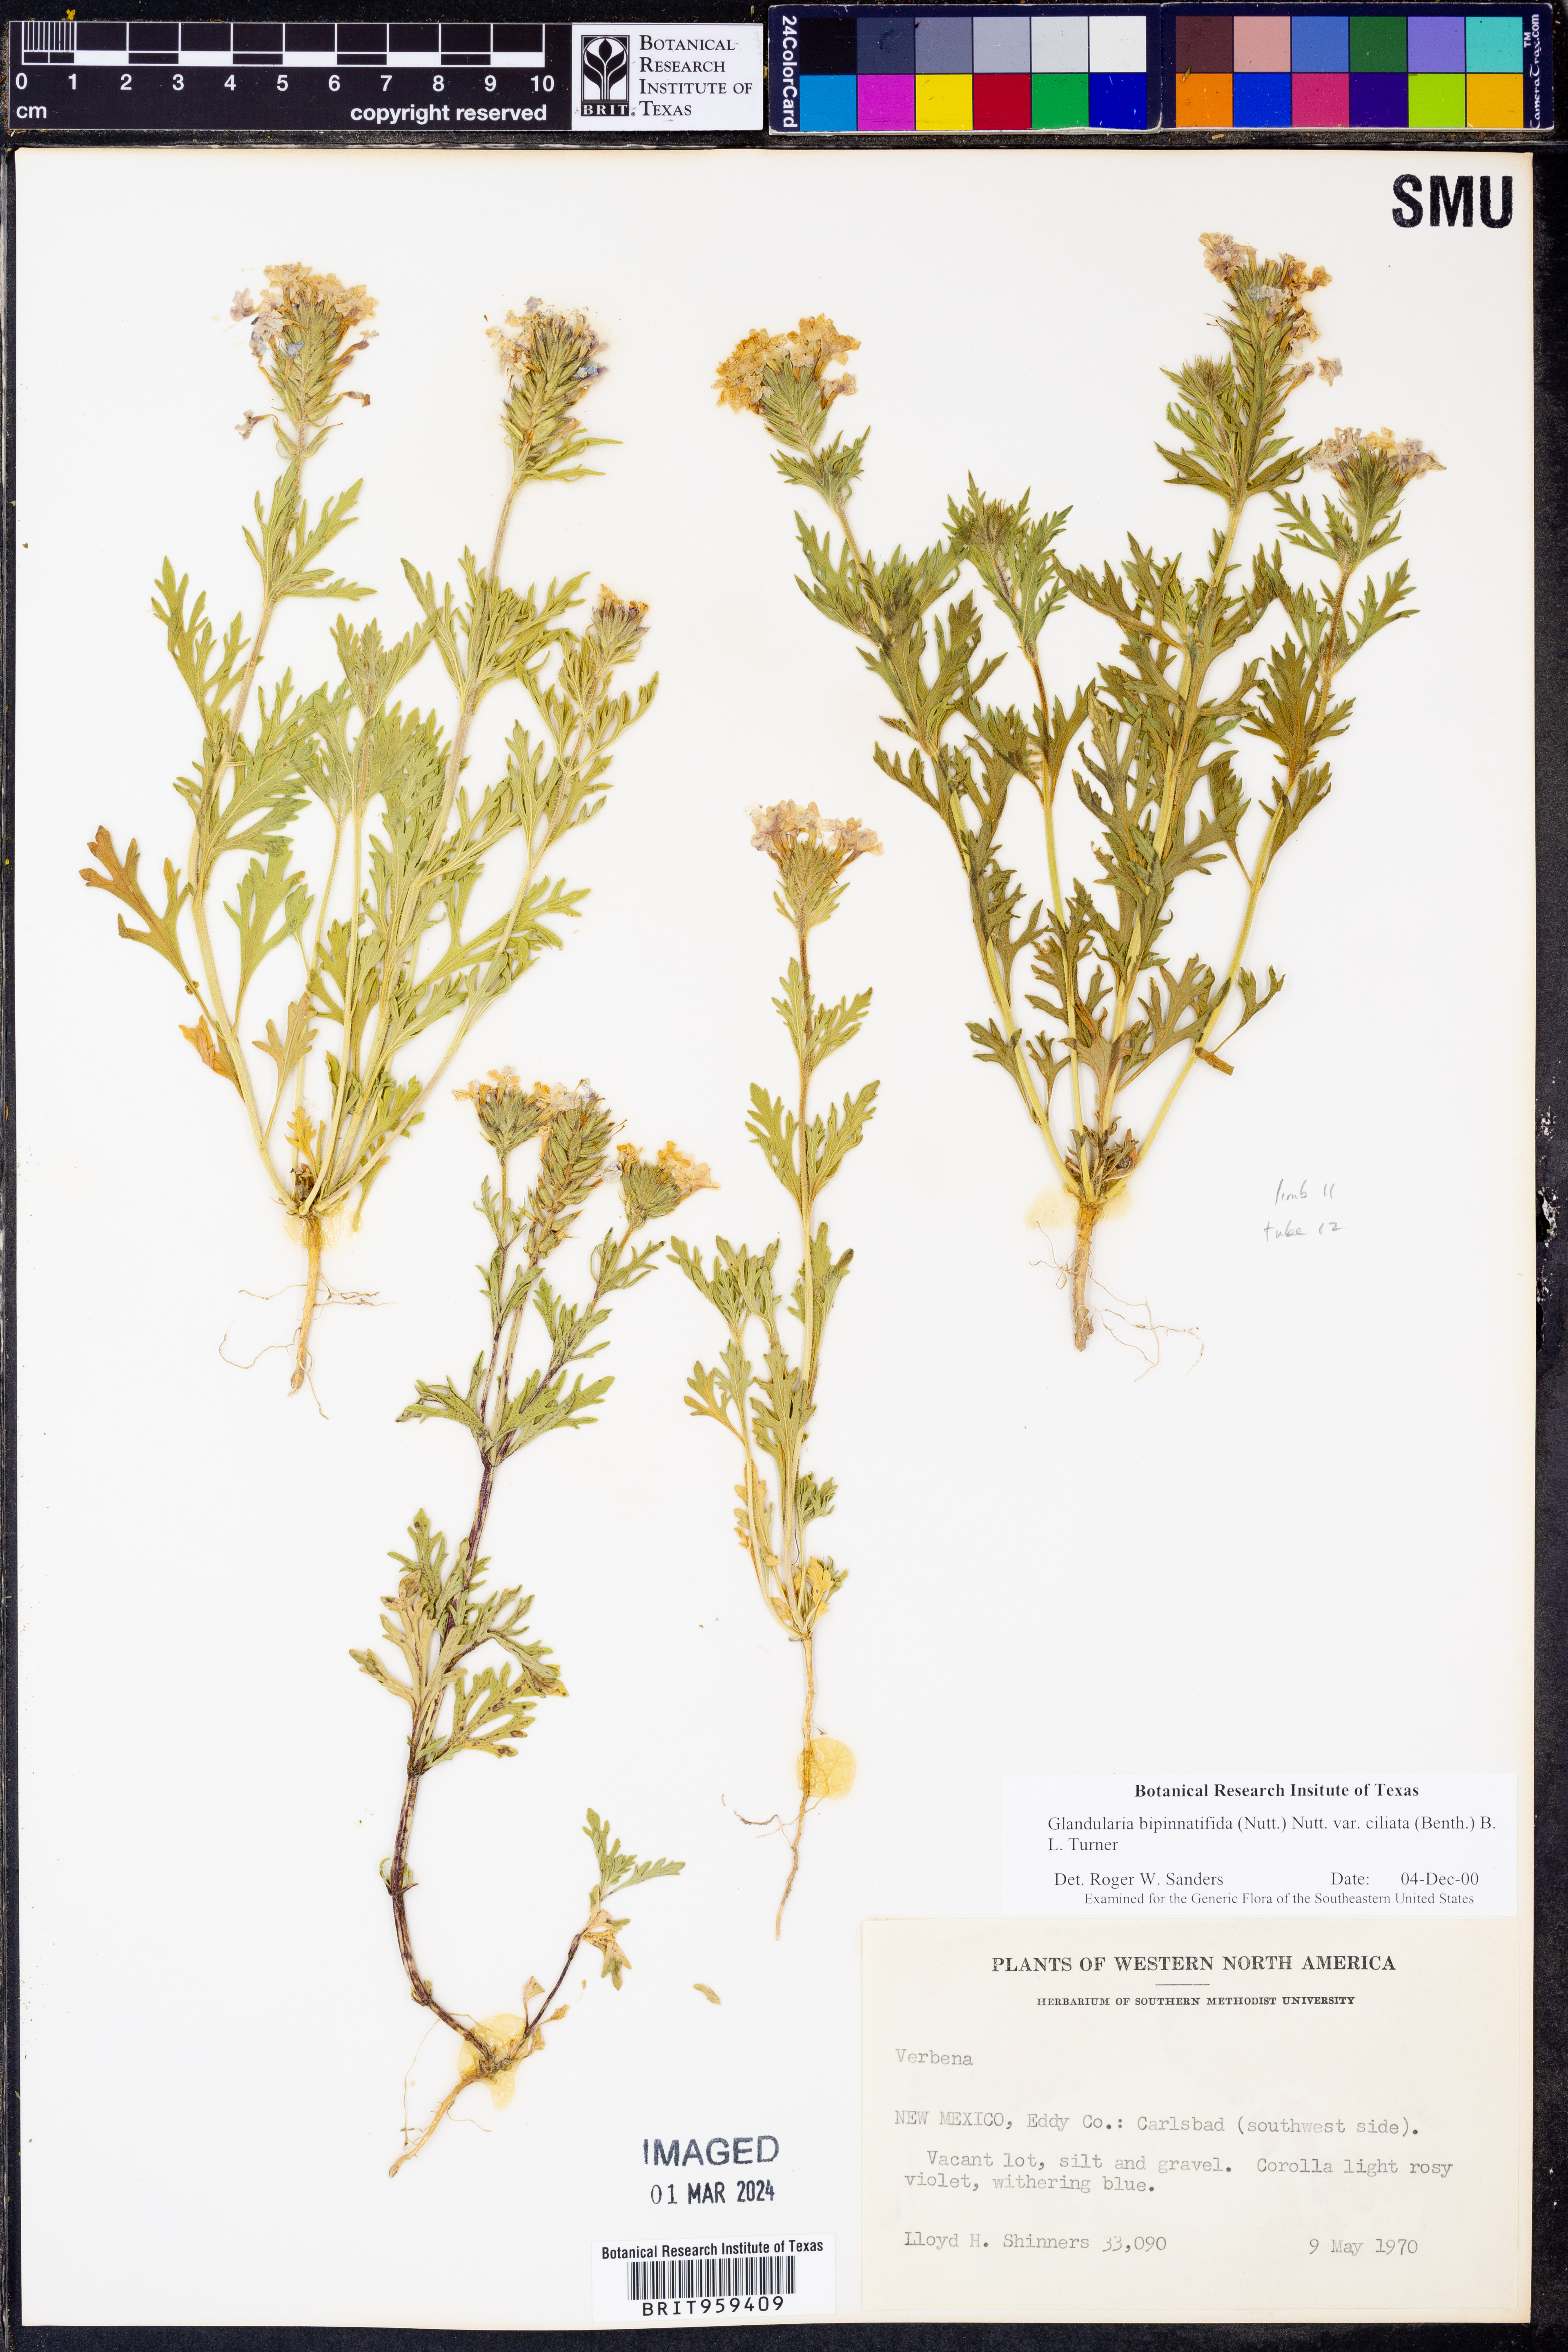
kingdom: Plantae
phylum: Tracheophyta
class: Magnoliopsida
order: Lamiales
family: Verbenaceae
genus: Verbena
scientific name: Verbena bipinnatifida
